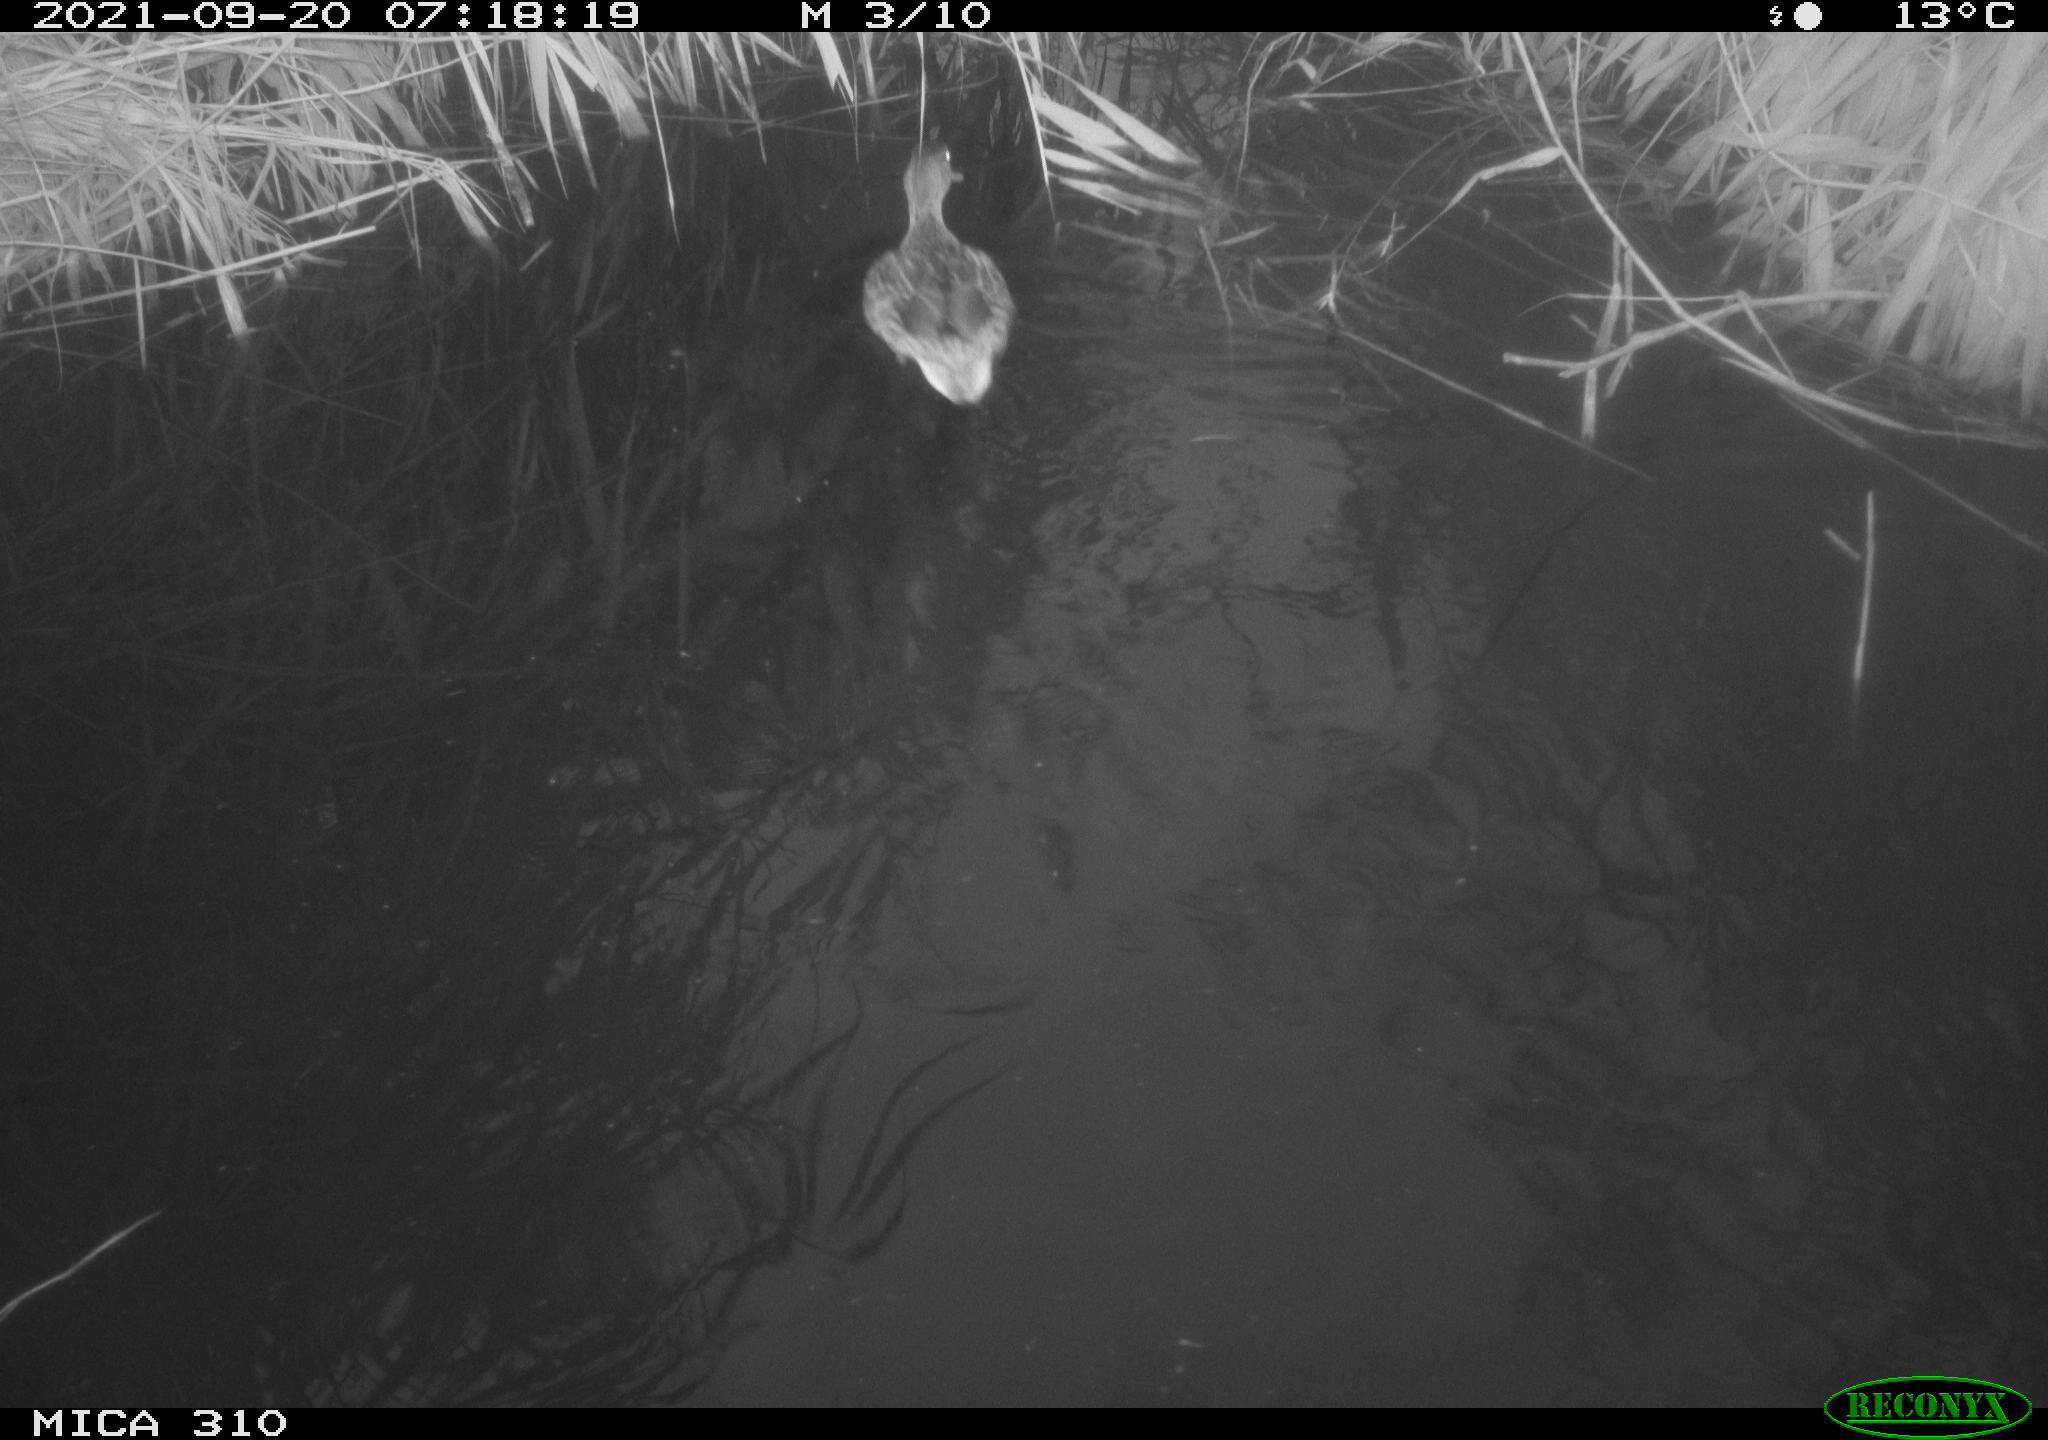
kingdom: Animalia
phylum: Chordata
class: Aves
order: Anseriformes
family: Anatidae
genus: Mareca
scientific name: Mareca strepera
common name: Gadwall
